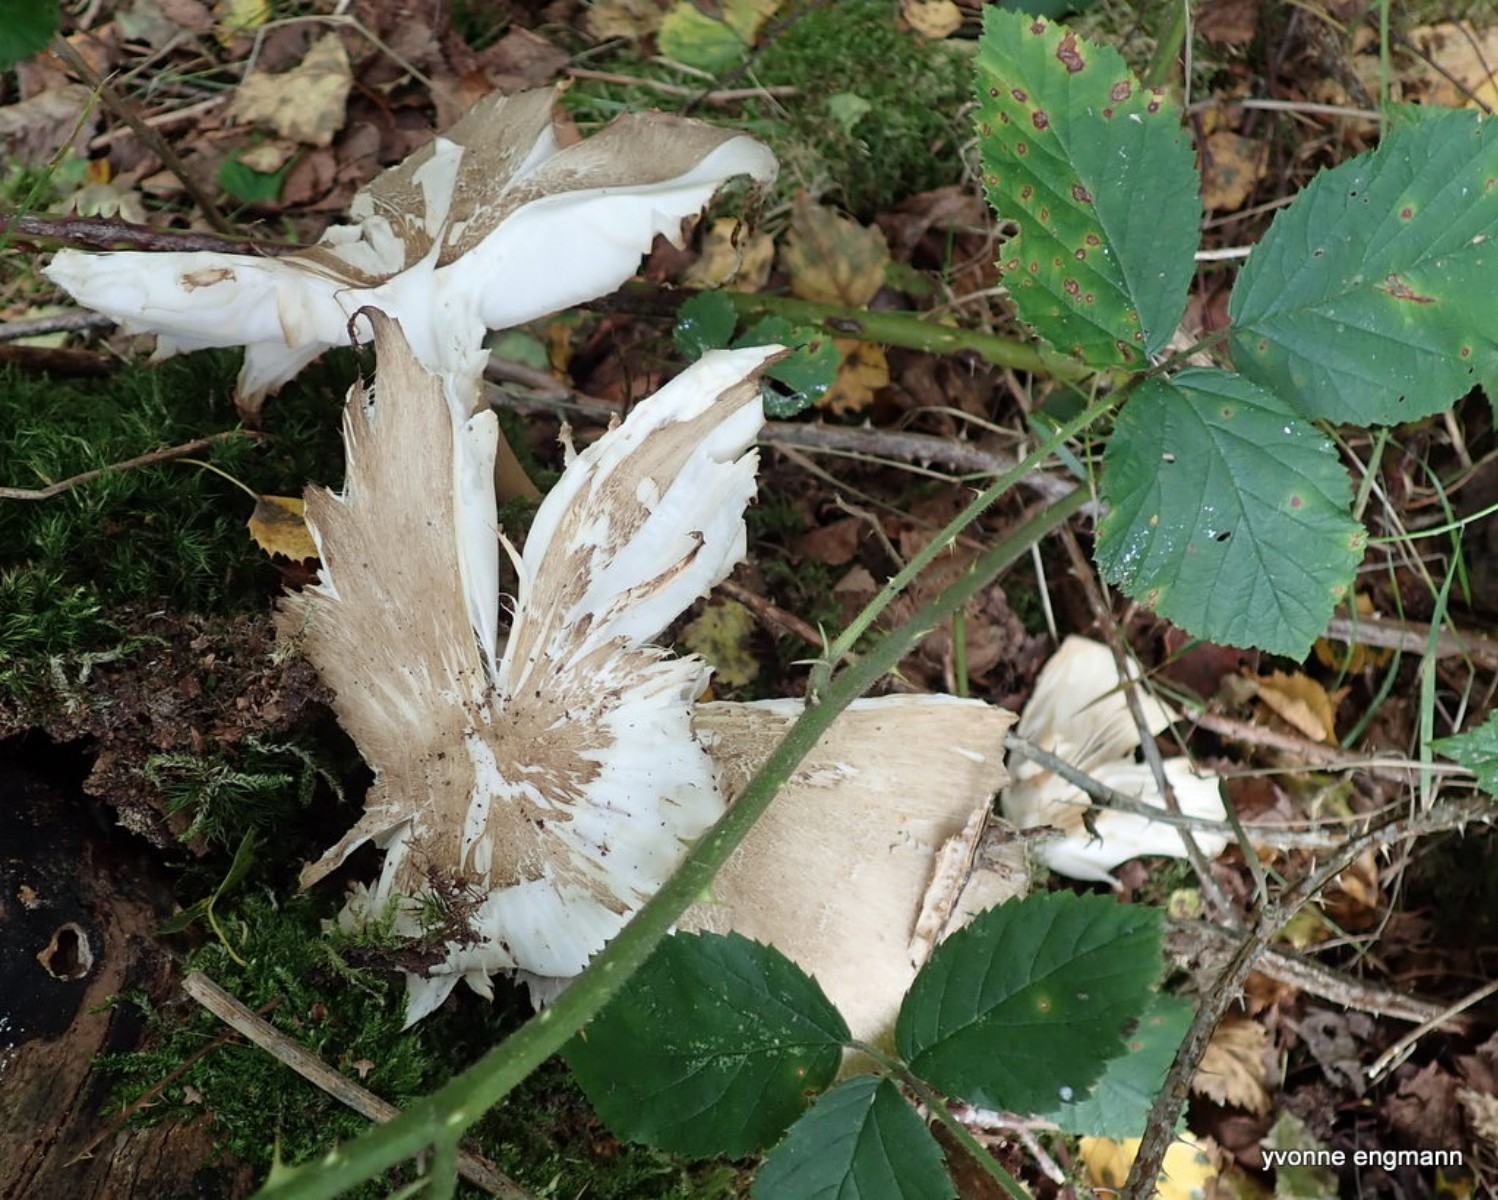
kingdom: Fungi
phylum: Basidiomycota
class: Agaricomycetes
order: Agaricales
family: Tricholomataceae
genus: Megacollybia
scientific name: Megacollybia platyphylla
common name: bredbladet væbnerhat
